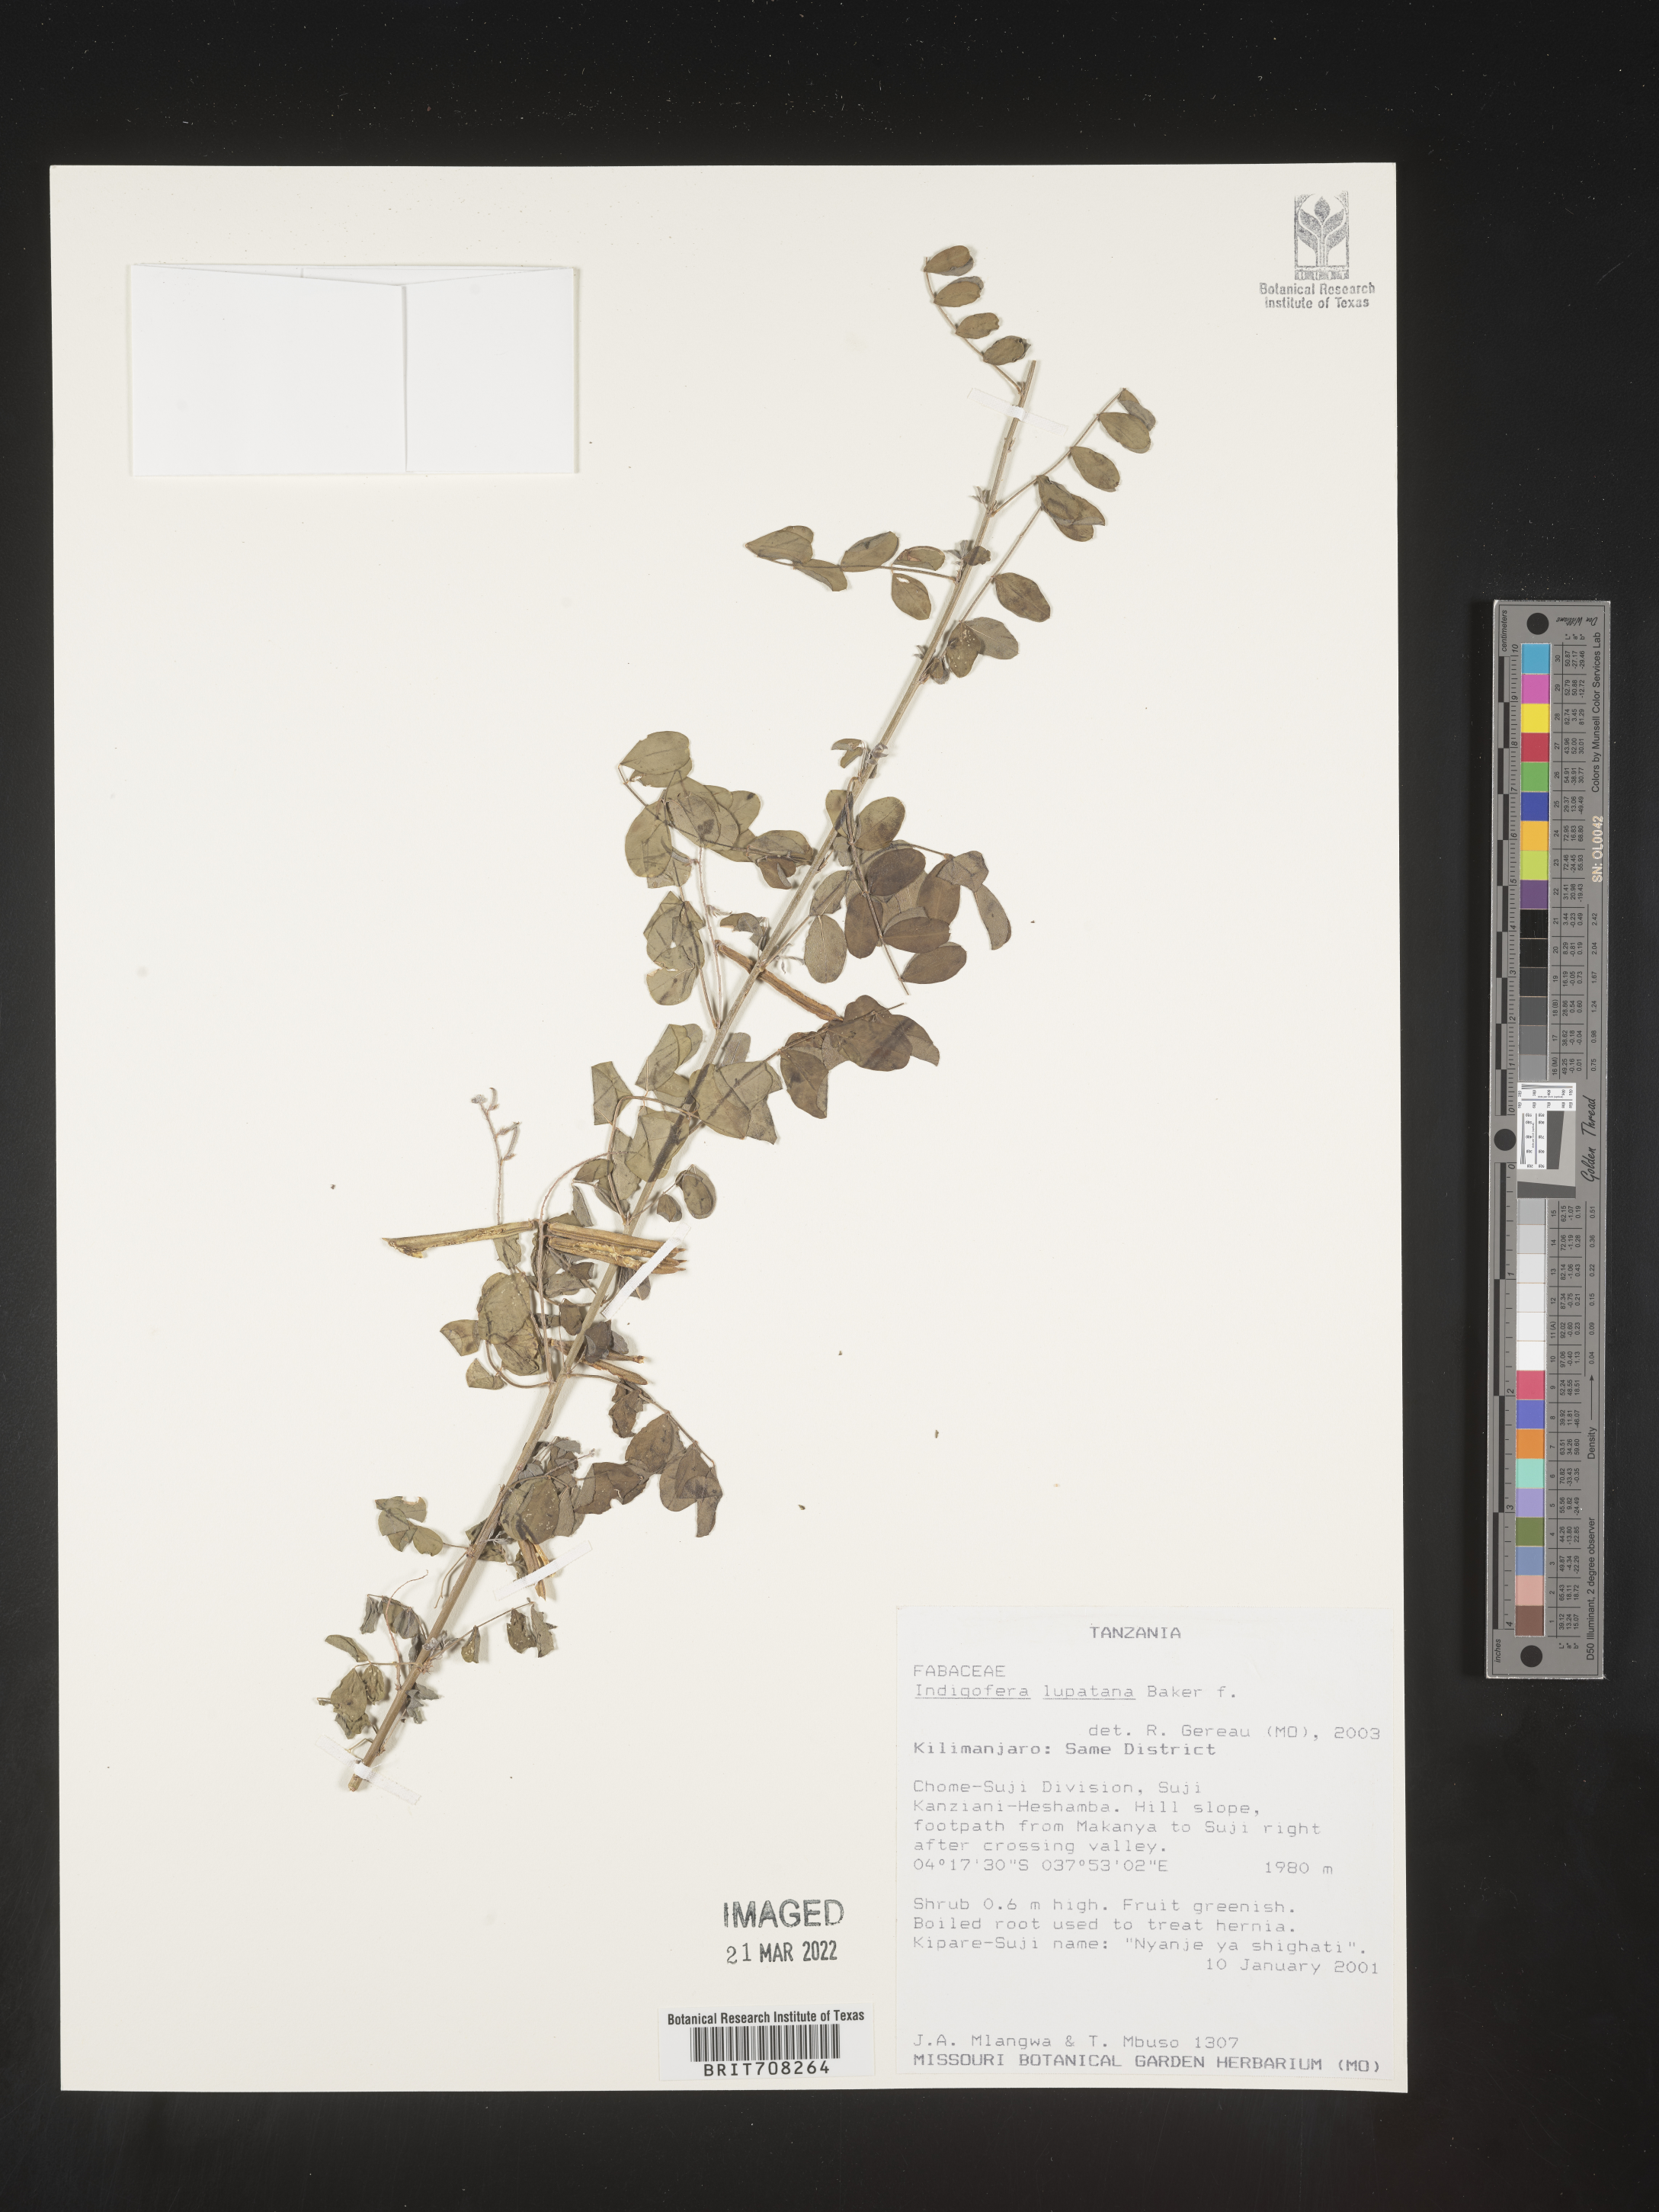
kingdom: Plantae
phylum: Tracheophyta
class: Magnoliopsida
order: Fabales
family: Fabaceae
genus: Indigofera
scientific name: Indigofera
